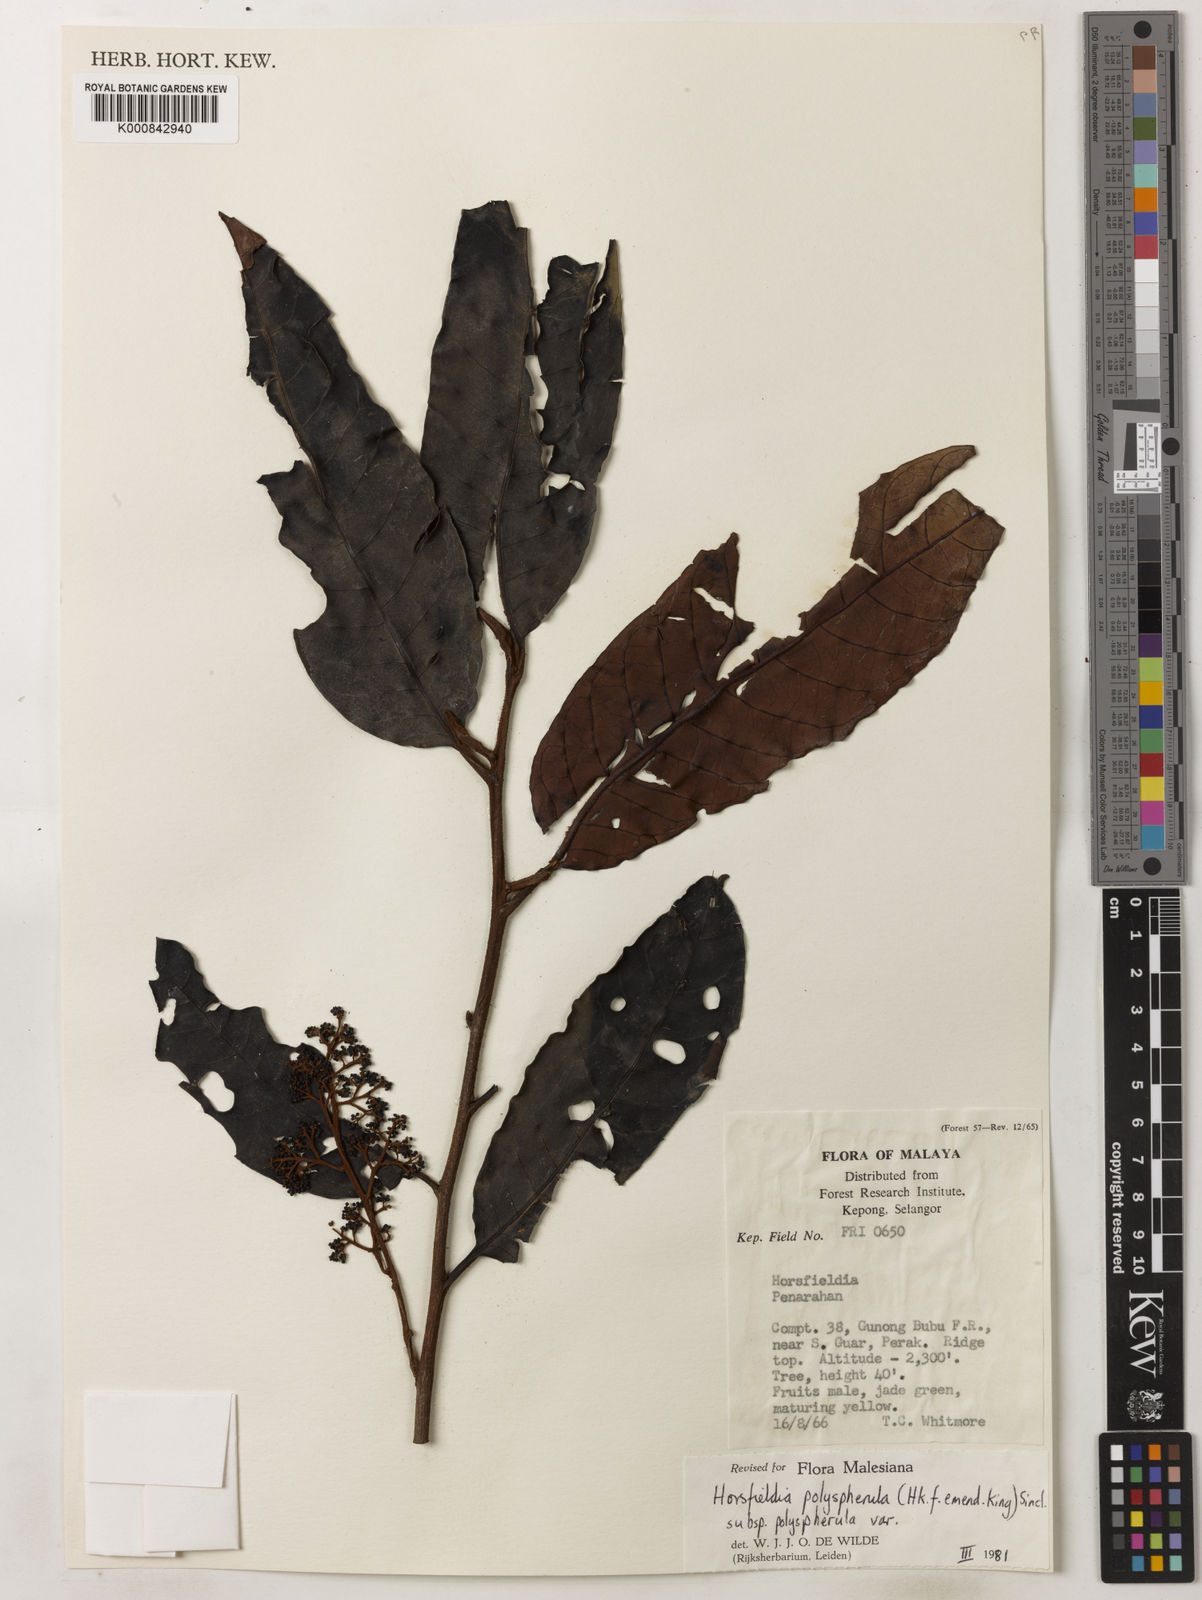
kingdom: Plantae
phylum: Tracheophyta
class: Magnoliopsida
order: Magnoliales
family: Myristicaceae
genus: Horsfieldia
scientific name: Horsfieldia
